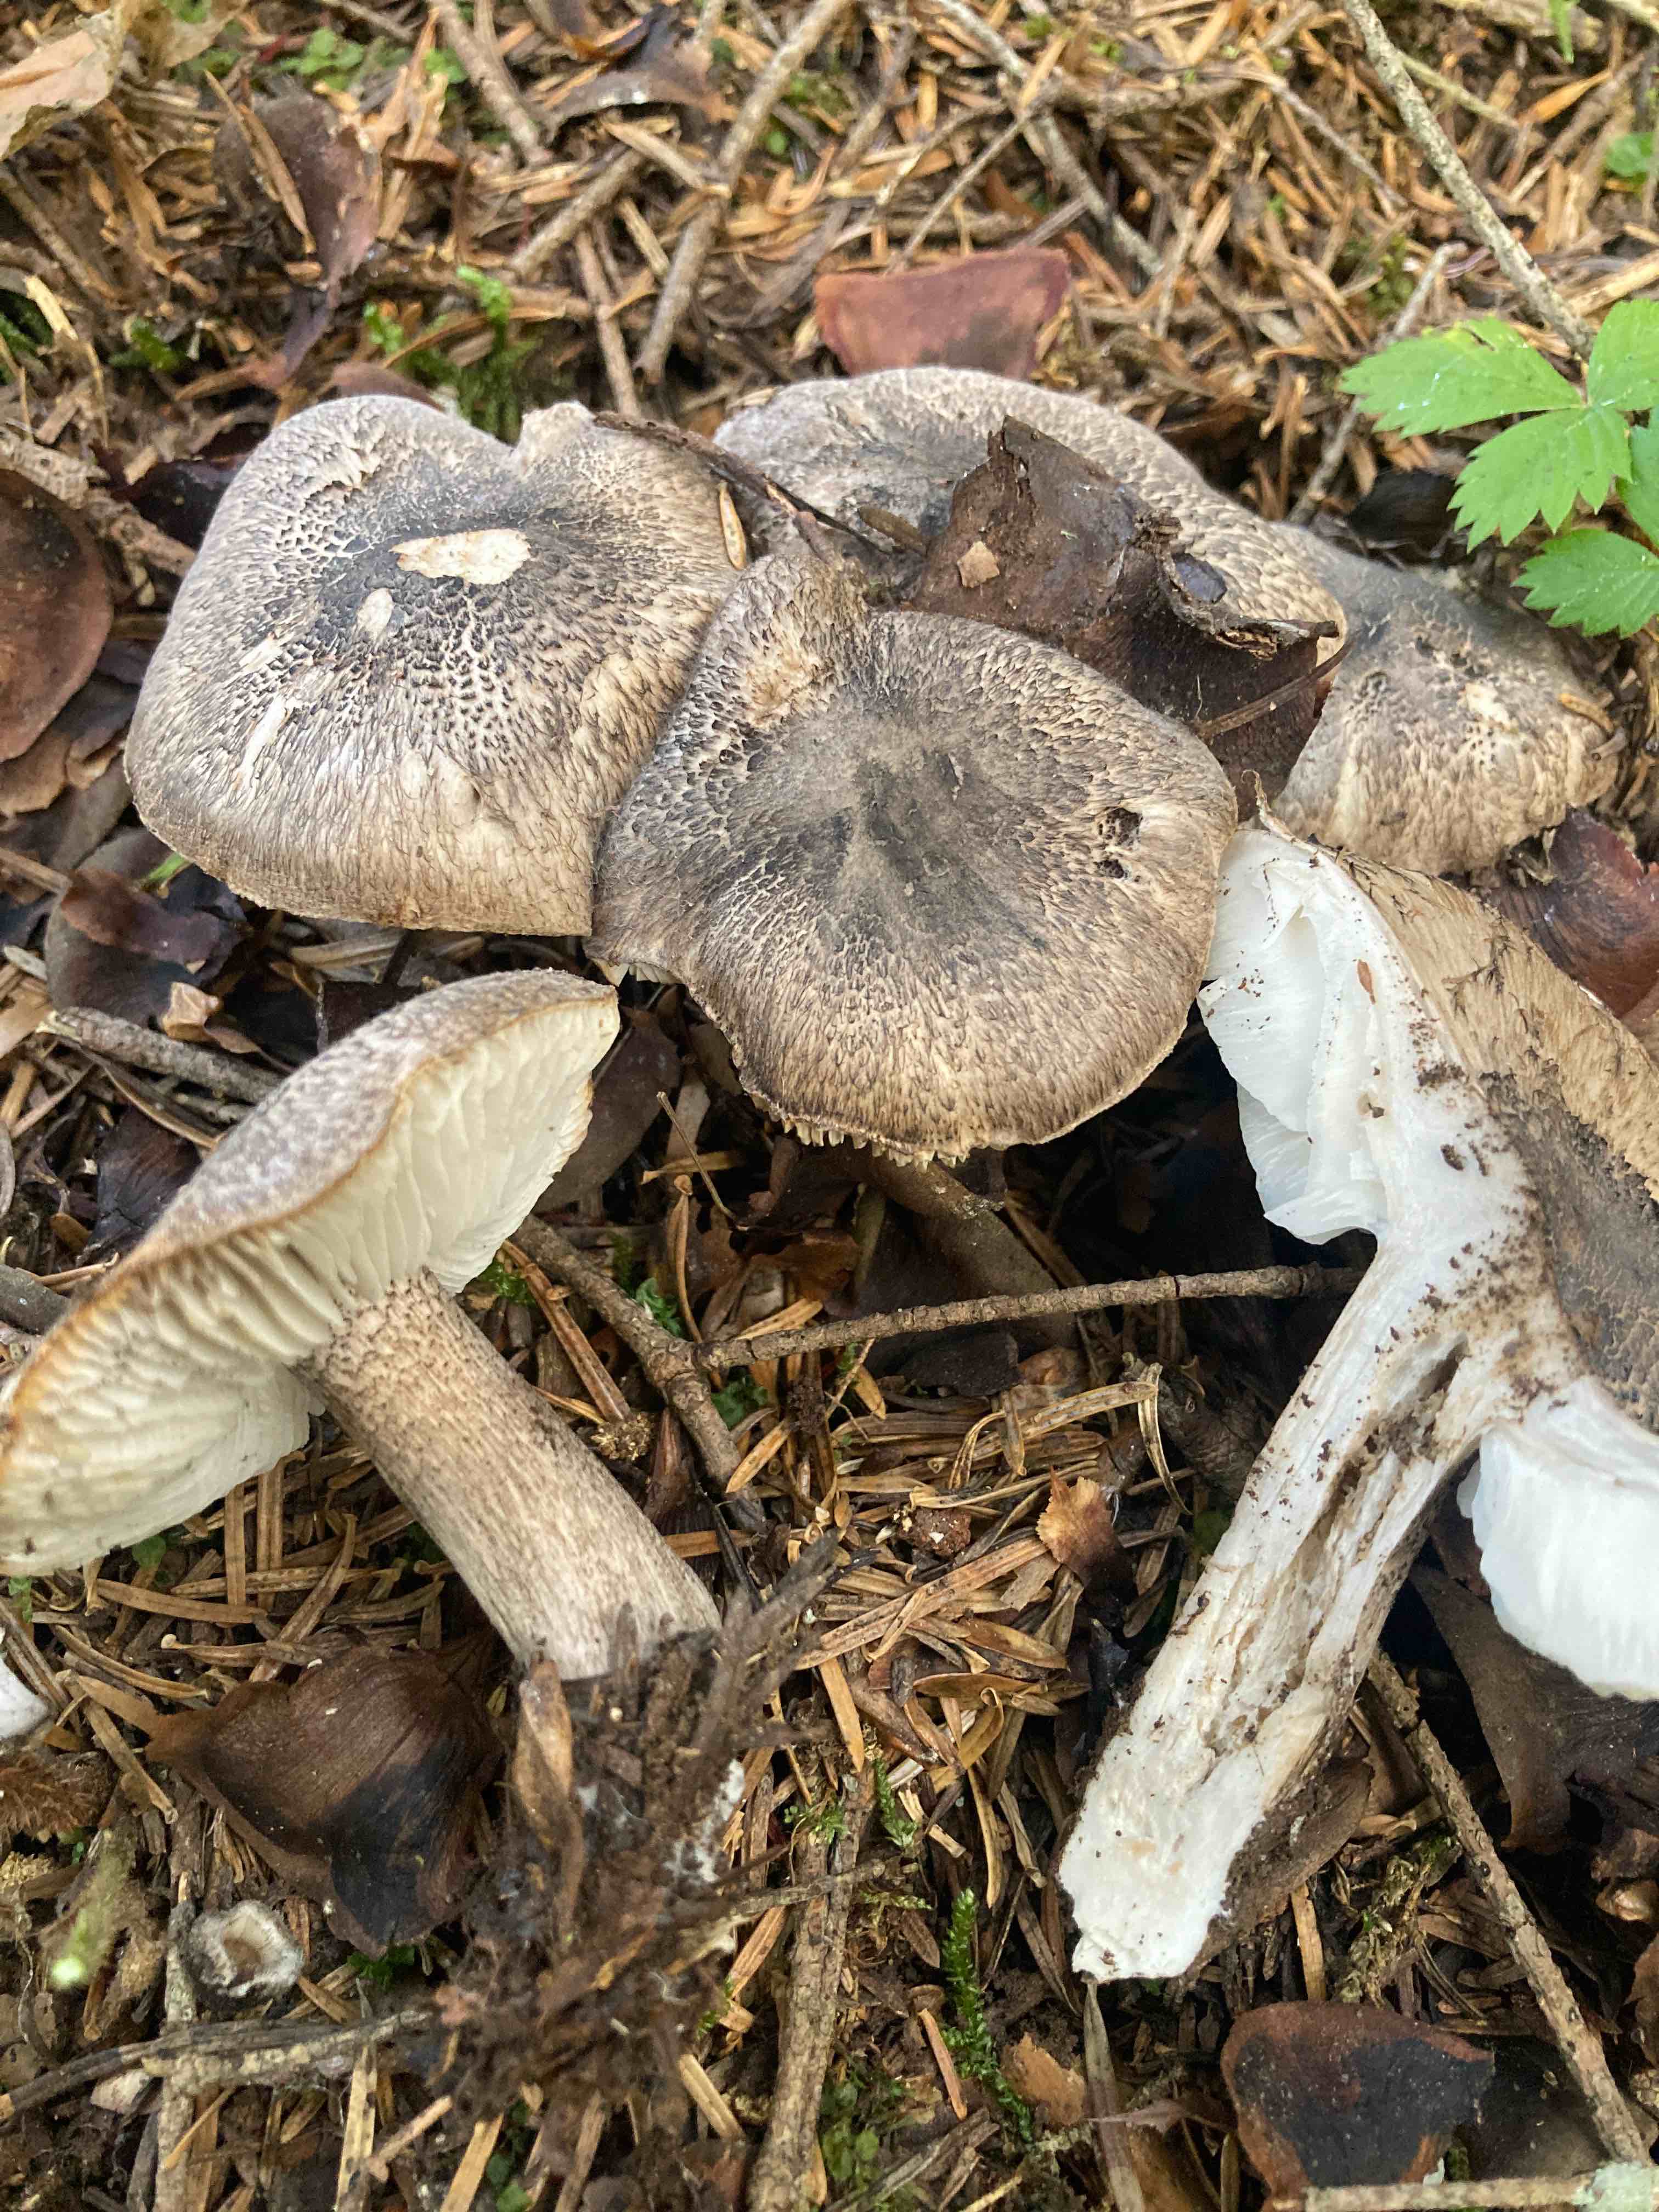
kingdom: Fungi
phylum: Basidiomycota
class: Agaricomycetes
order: Agaricales
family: Tricholomataceae
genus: Tricholoma
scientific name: Tricholoma atrosquamosum
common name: sortskællet ridderhat
